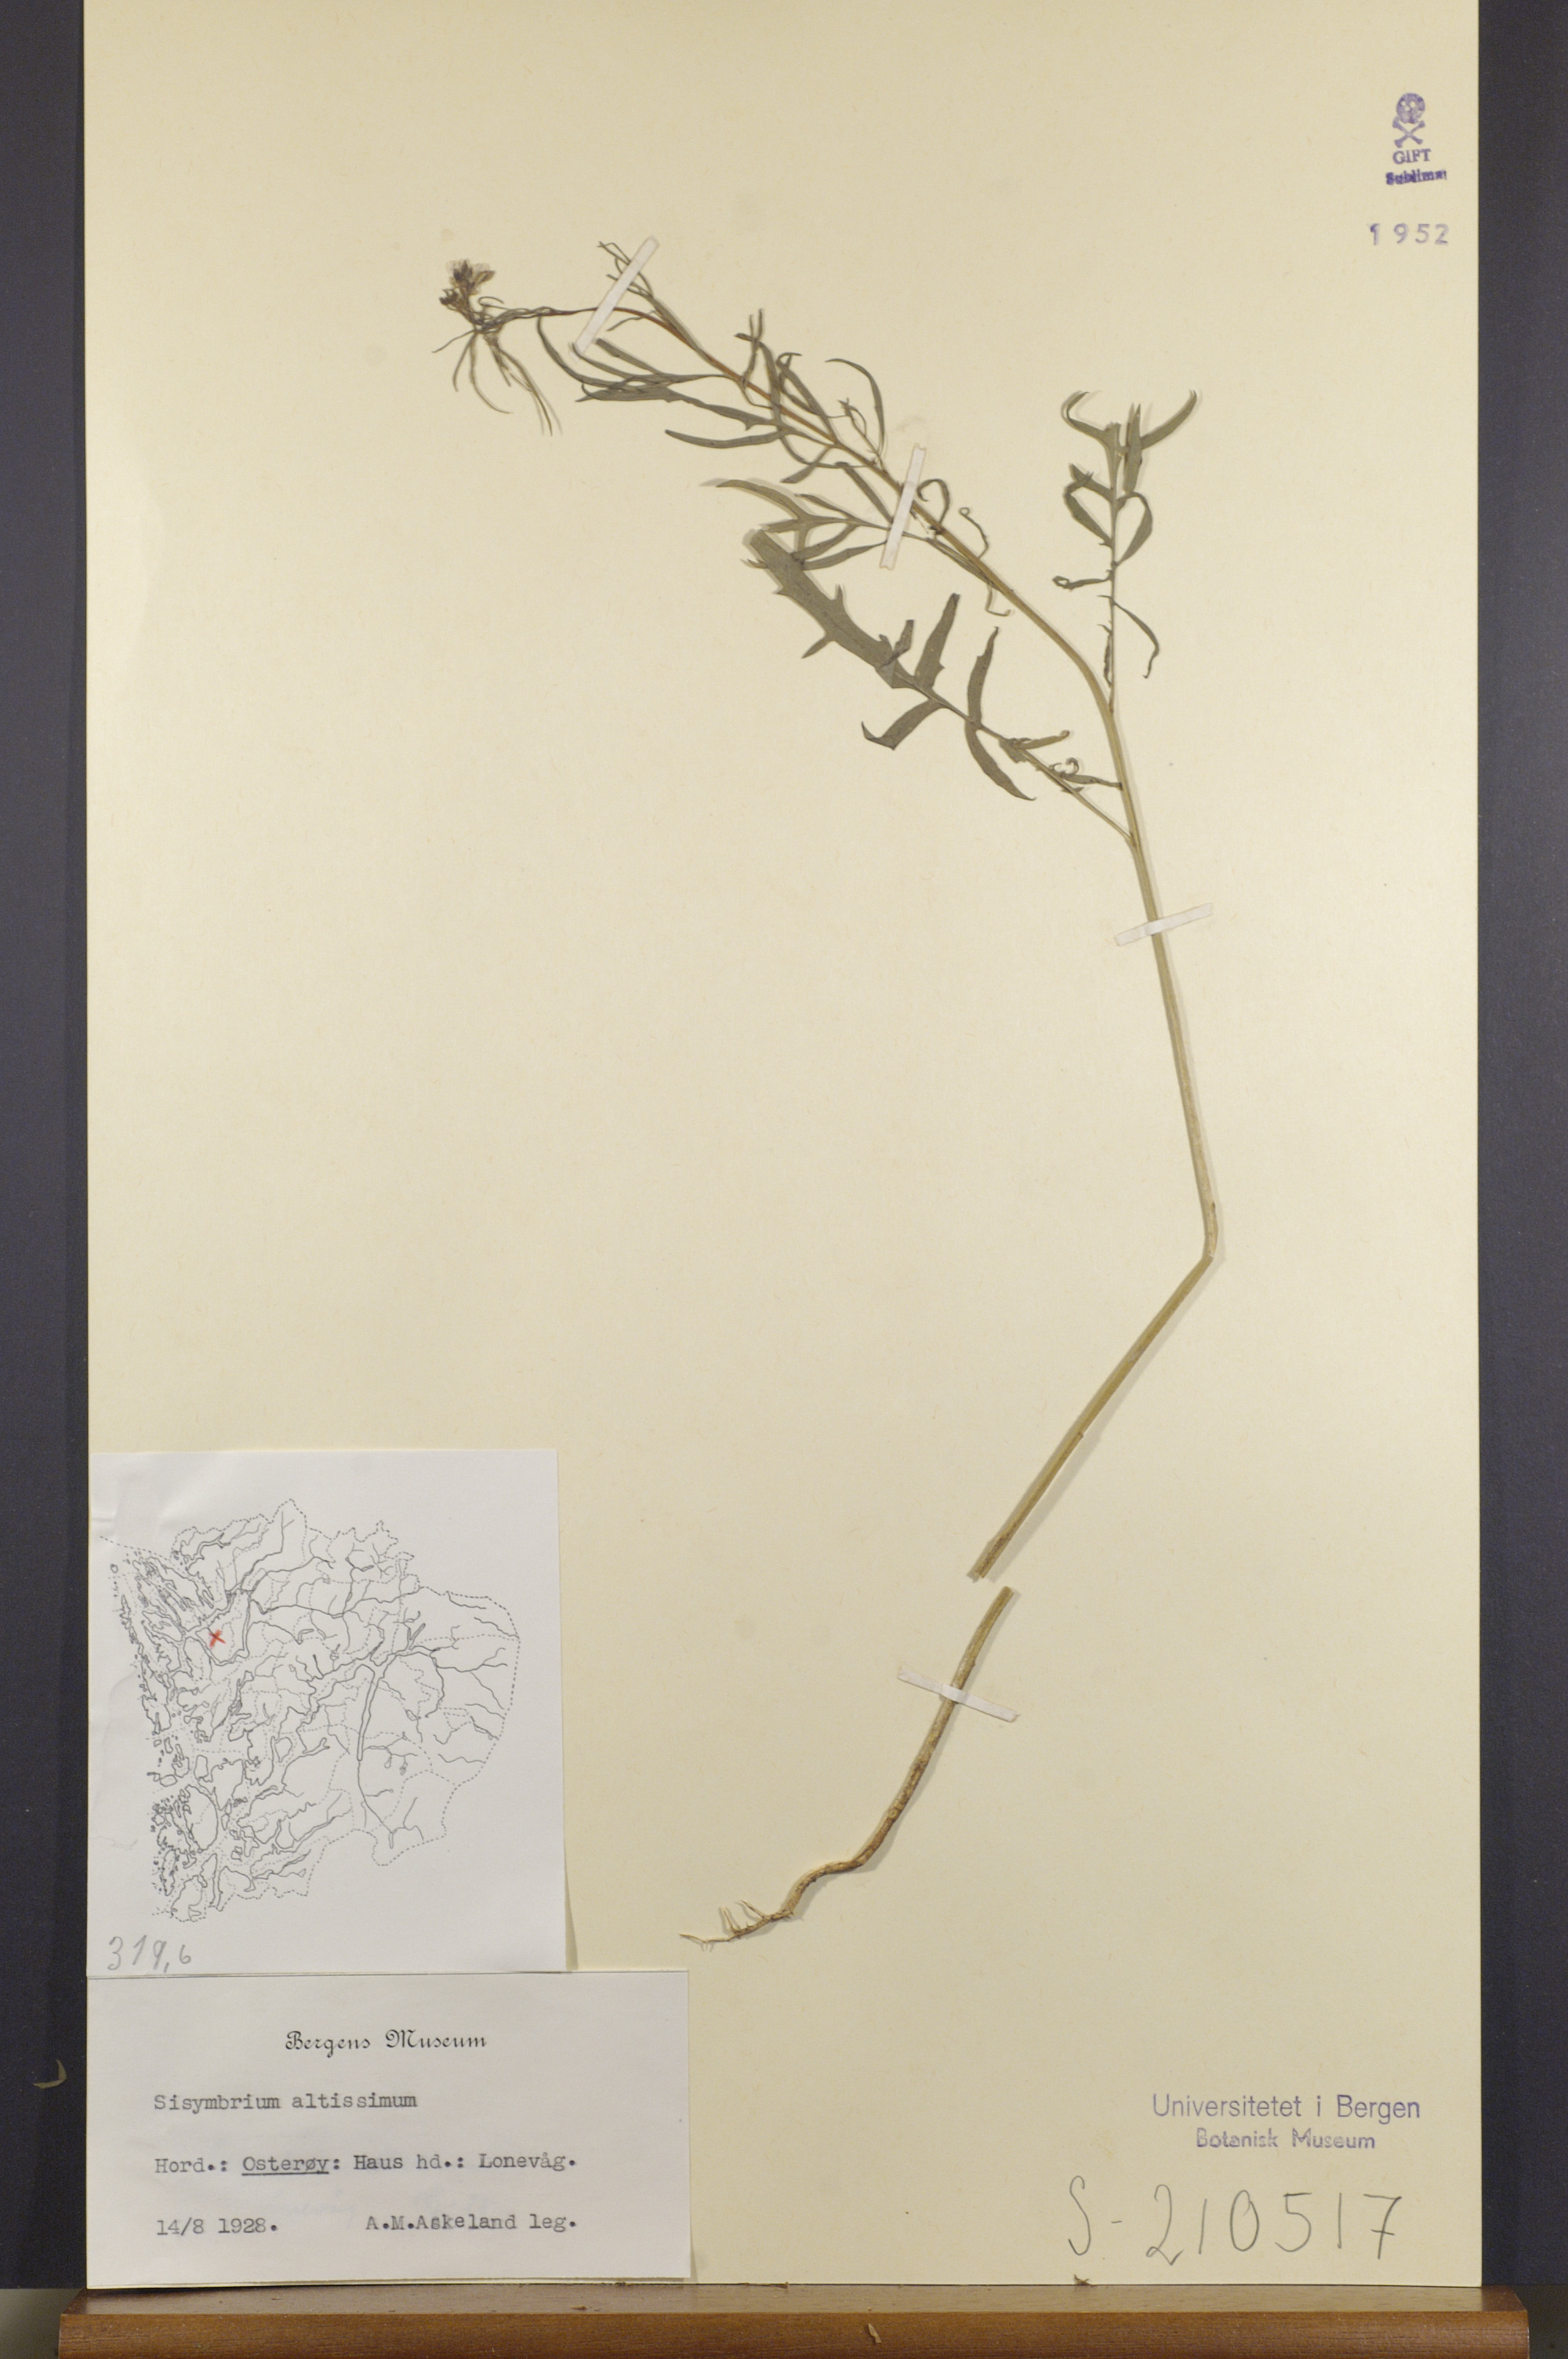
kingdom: Plantae
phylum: Tracheophyta
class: Magnoliopsida
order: Brassicales
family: Brassicaceae
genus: Sisymbrium
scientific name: Sisymbrium altissimum
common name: Tall rocket
